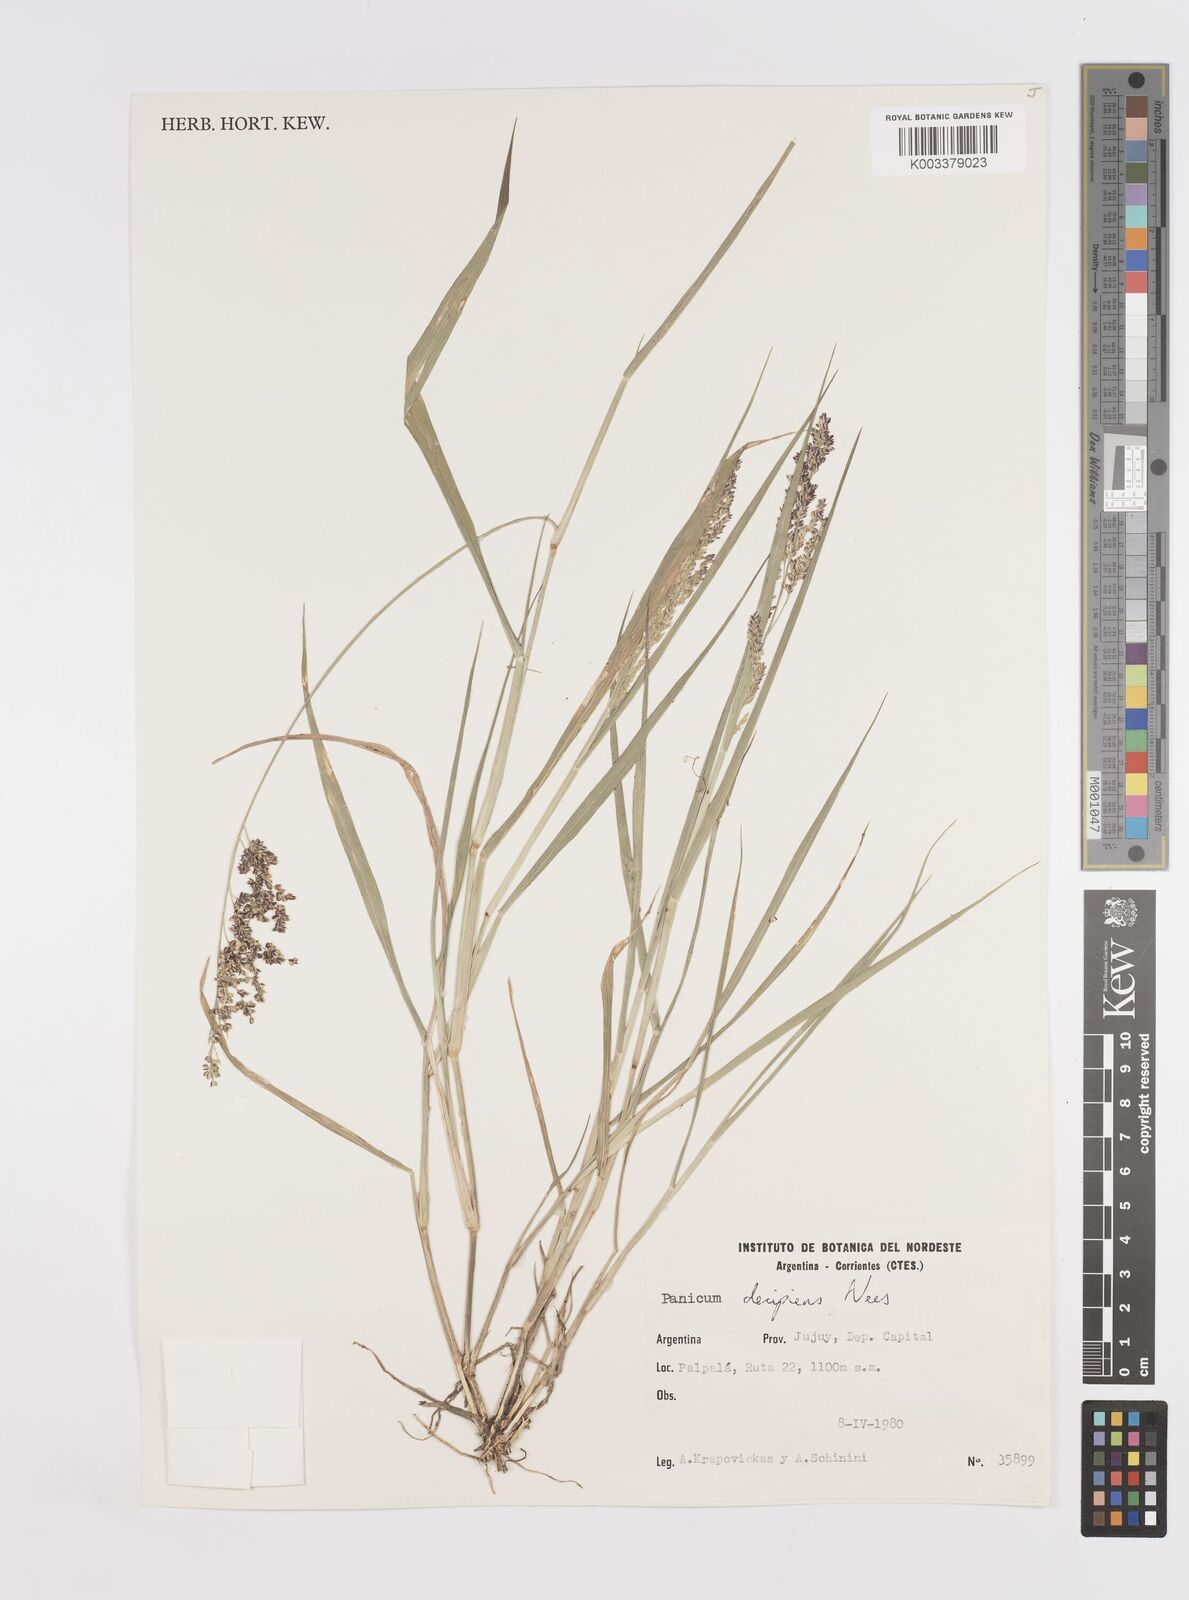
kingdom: Plantae
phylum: Tracheophyta
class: Liliopsida
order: Poales
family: Poaceae
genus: Steinchisma
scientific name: Steinchisma decipiens
